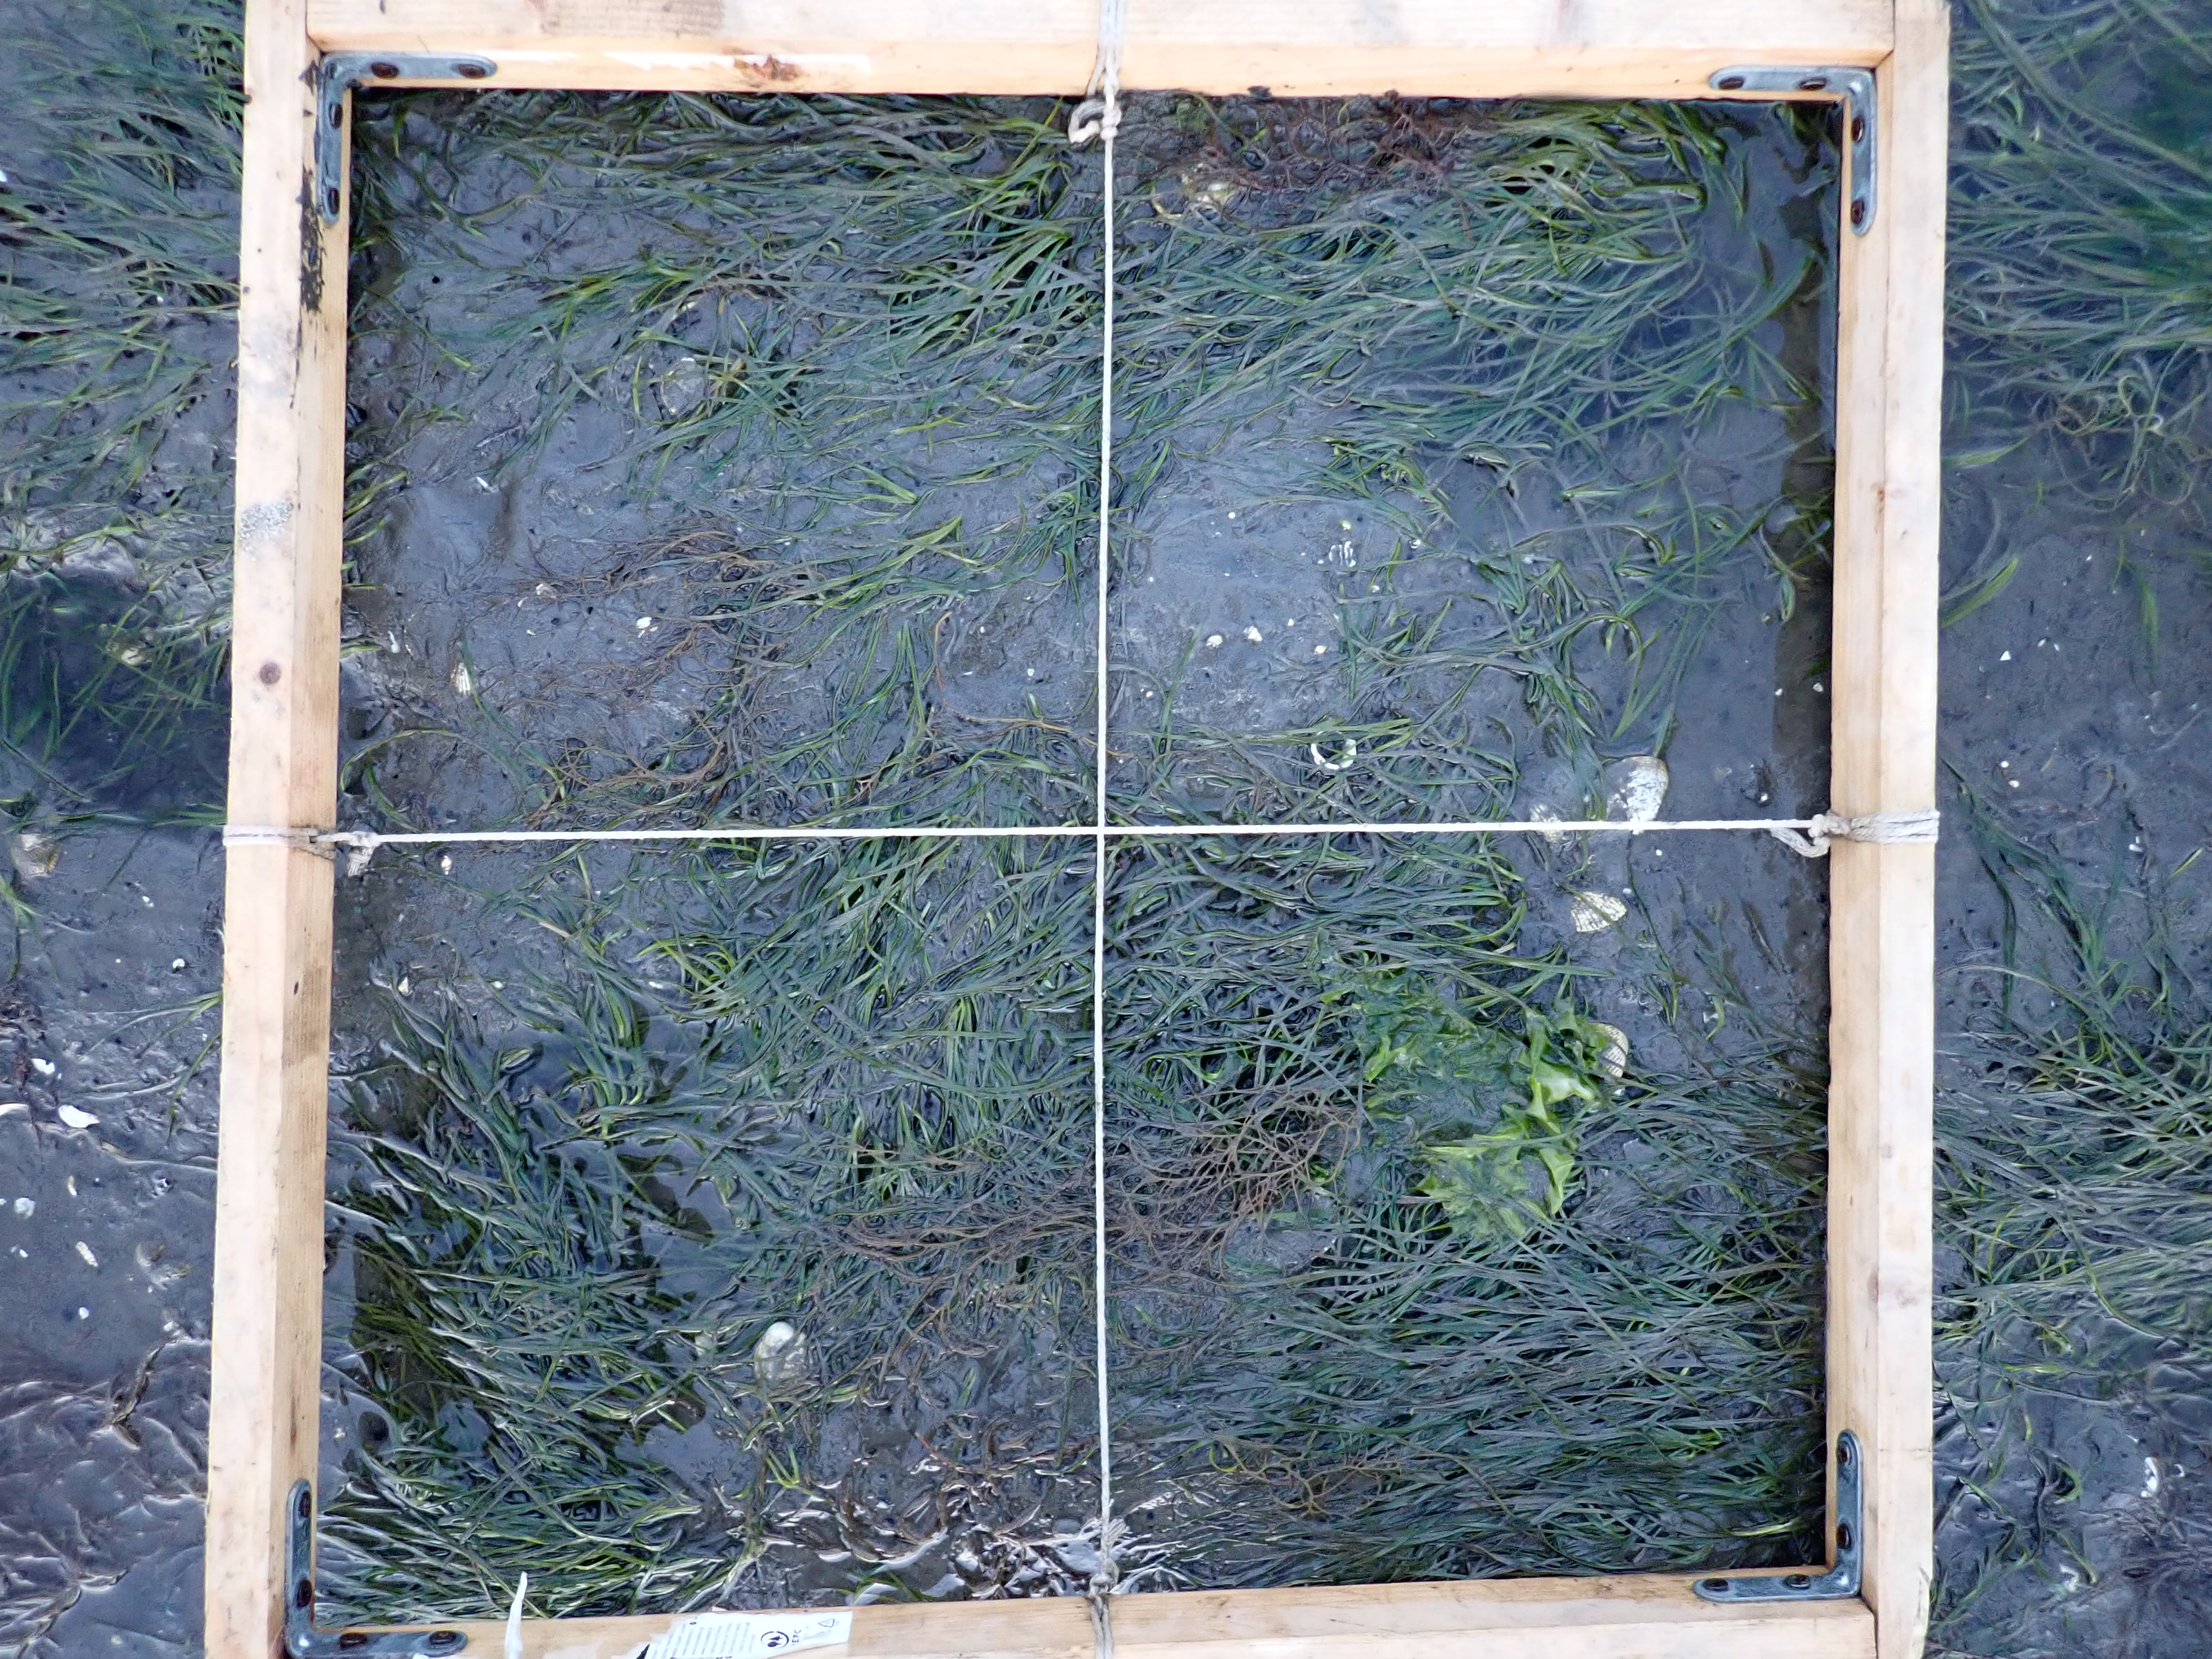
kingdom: Plantae
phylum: Rhodophyta
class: Florideophyceae
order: Gracilariales
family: Gracilariaceae
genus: Gracilaria
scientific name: Gracilaria vermiculophylla
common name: Algae
